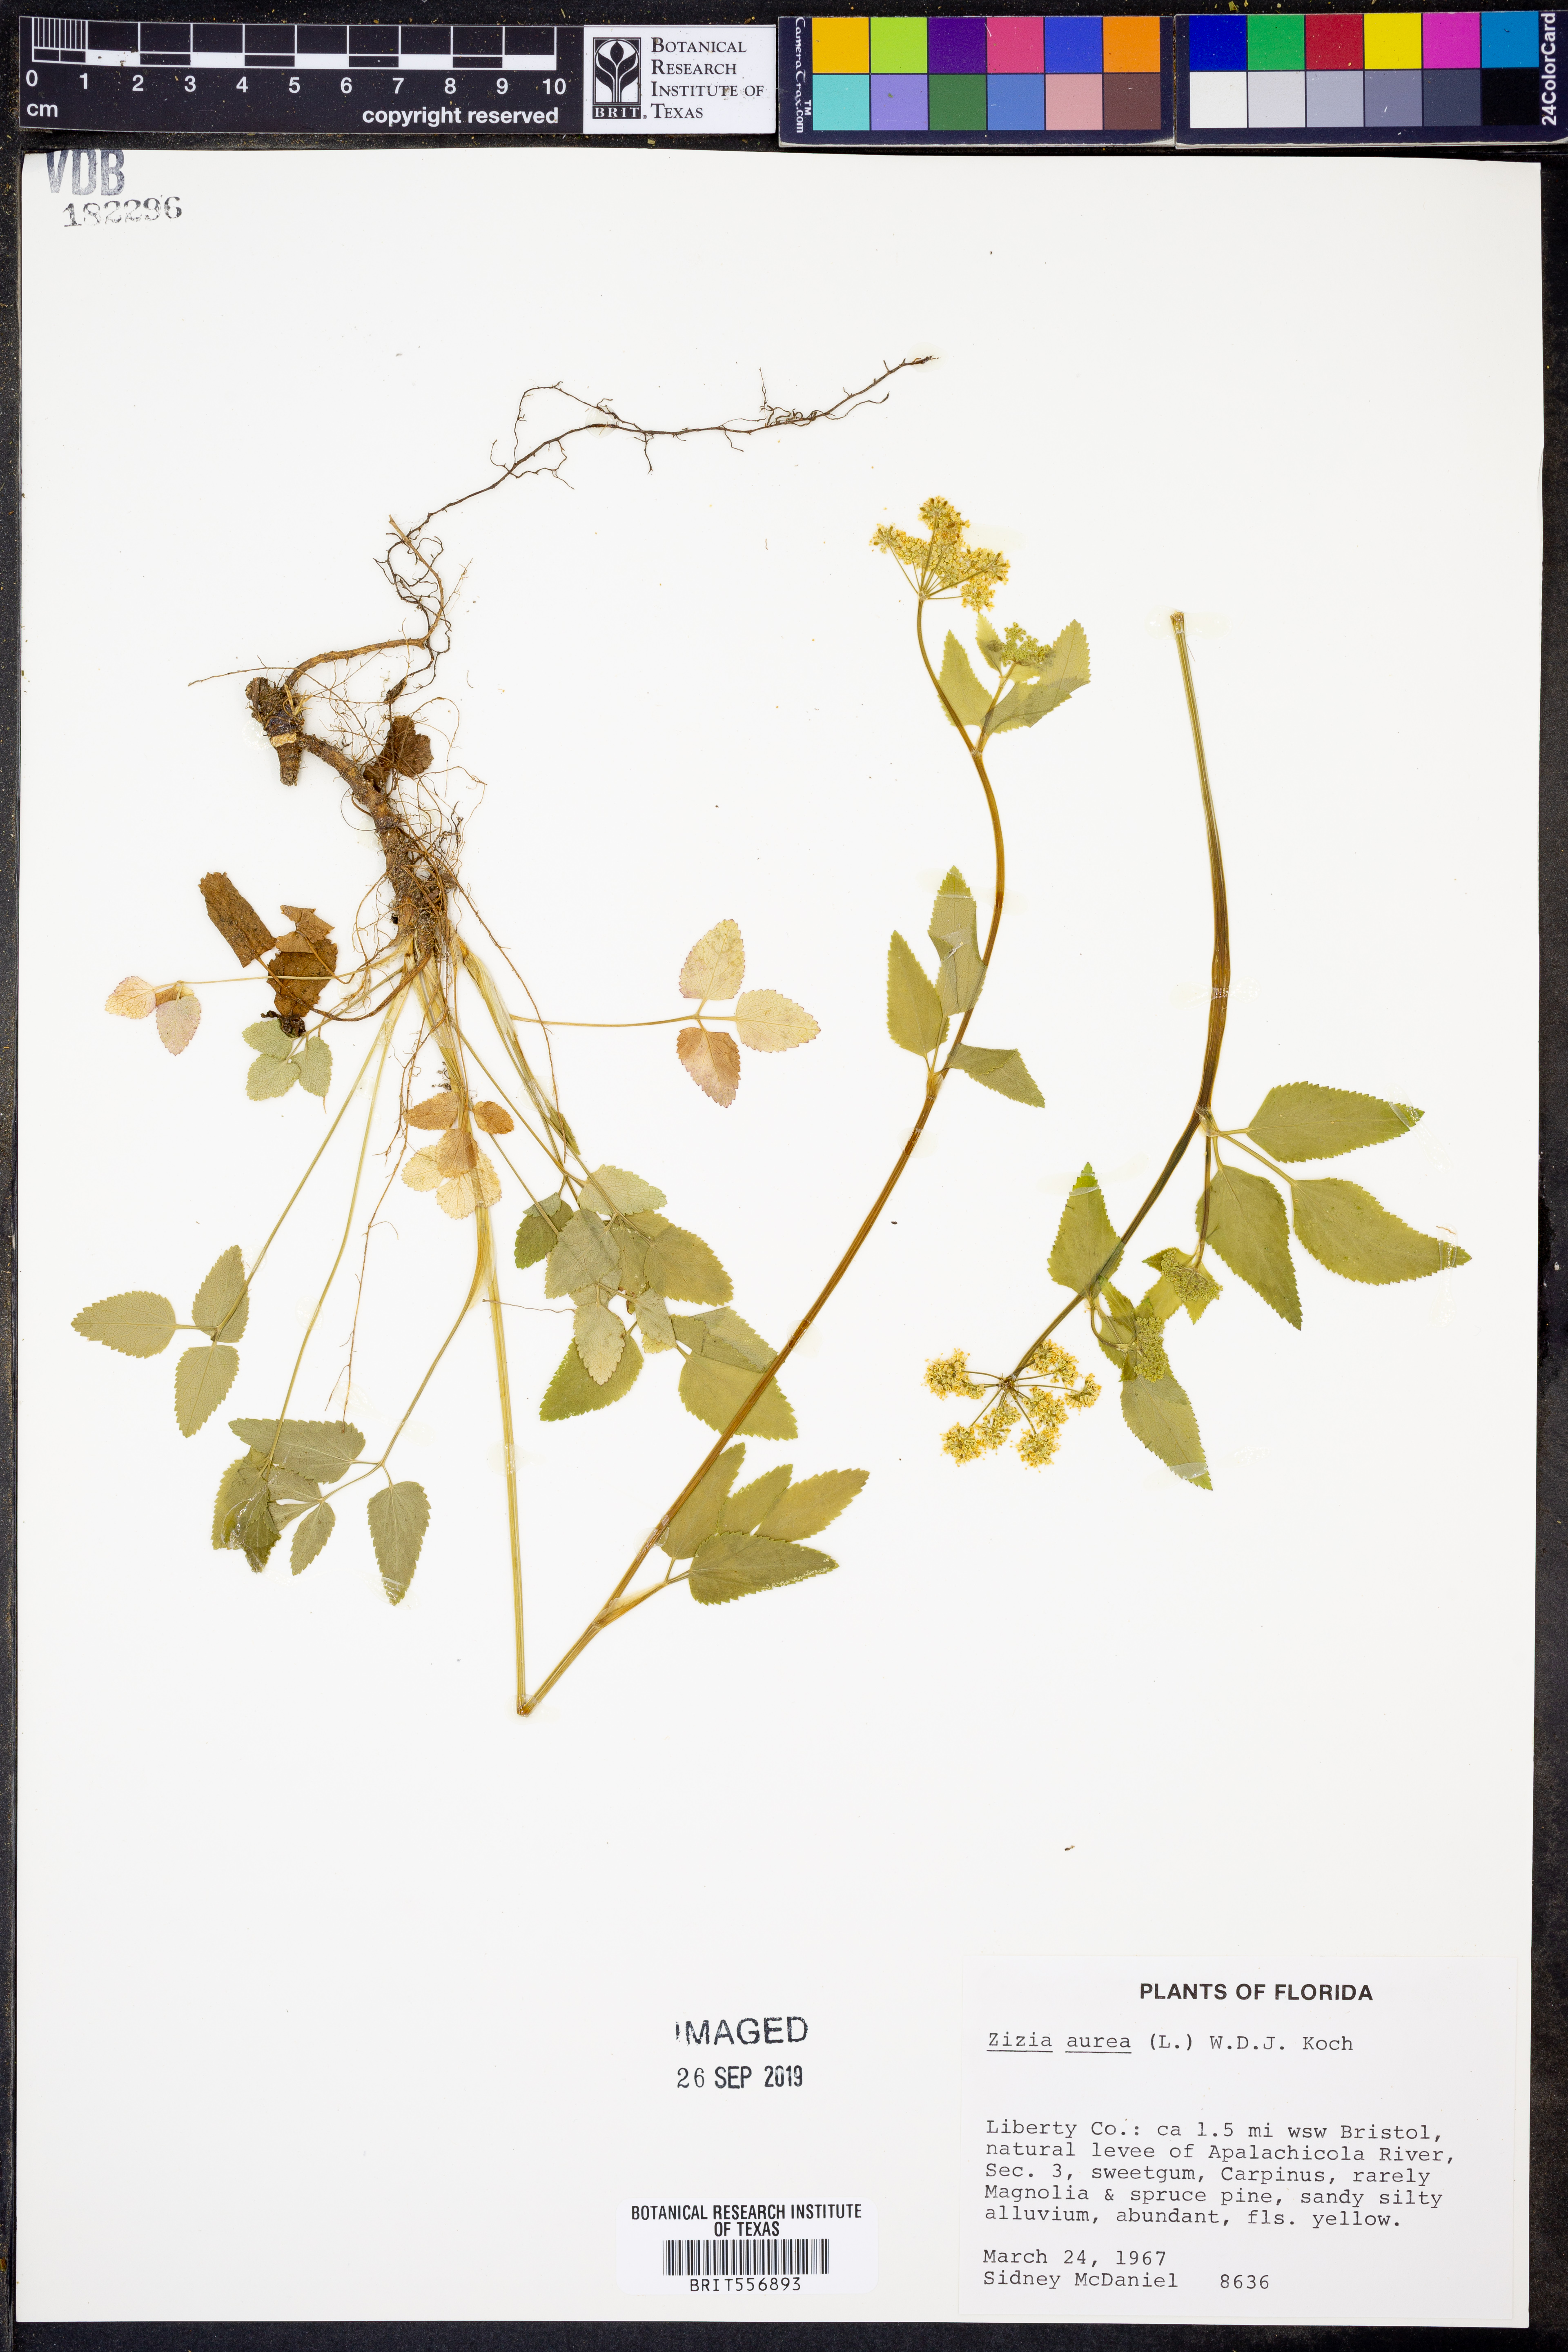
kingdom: Plantae
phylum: Tracheophyta
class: Magnoliopsida
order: Apiales
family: Apiaceae
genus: Zizia
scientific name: Zizia aurea
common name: Golden alexanders
